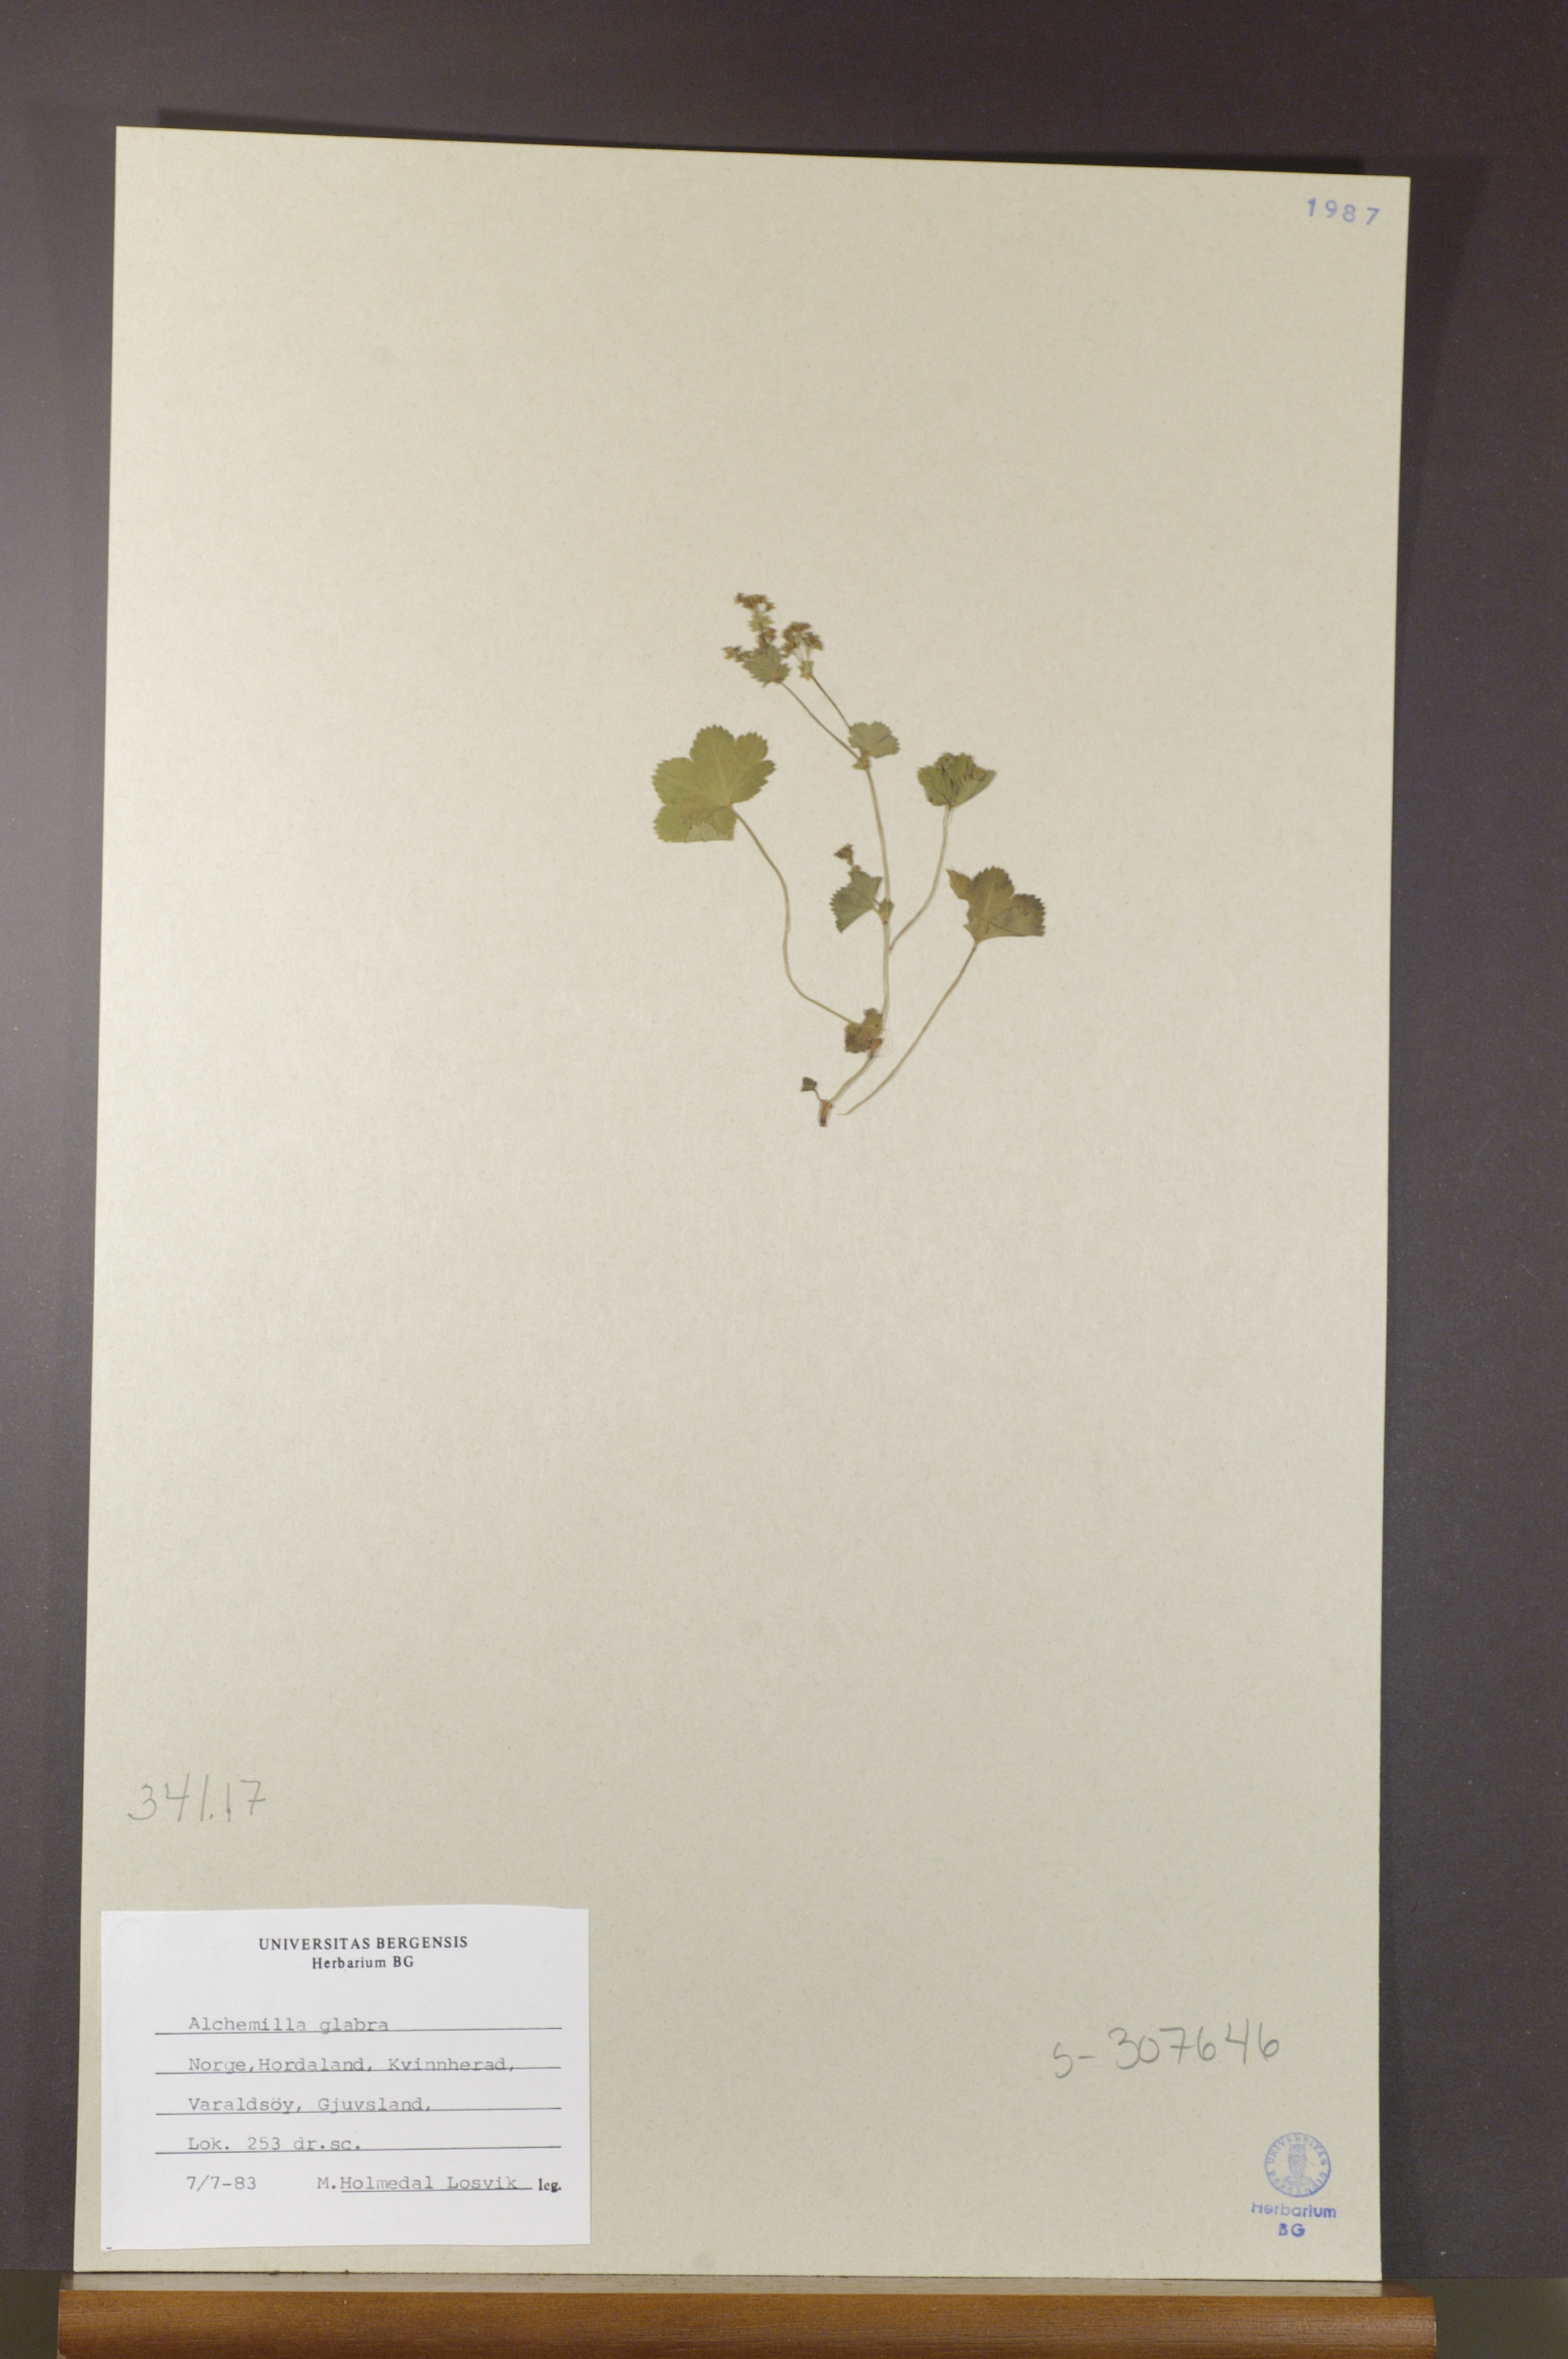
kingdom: Plantae
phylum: Tracheophyta
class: Magnoliopsida
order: Rosales
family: Rosaceae
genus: Alchemilla
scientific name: Alchemilla glabra
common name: Smooth lady's-mantle
